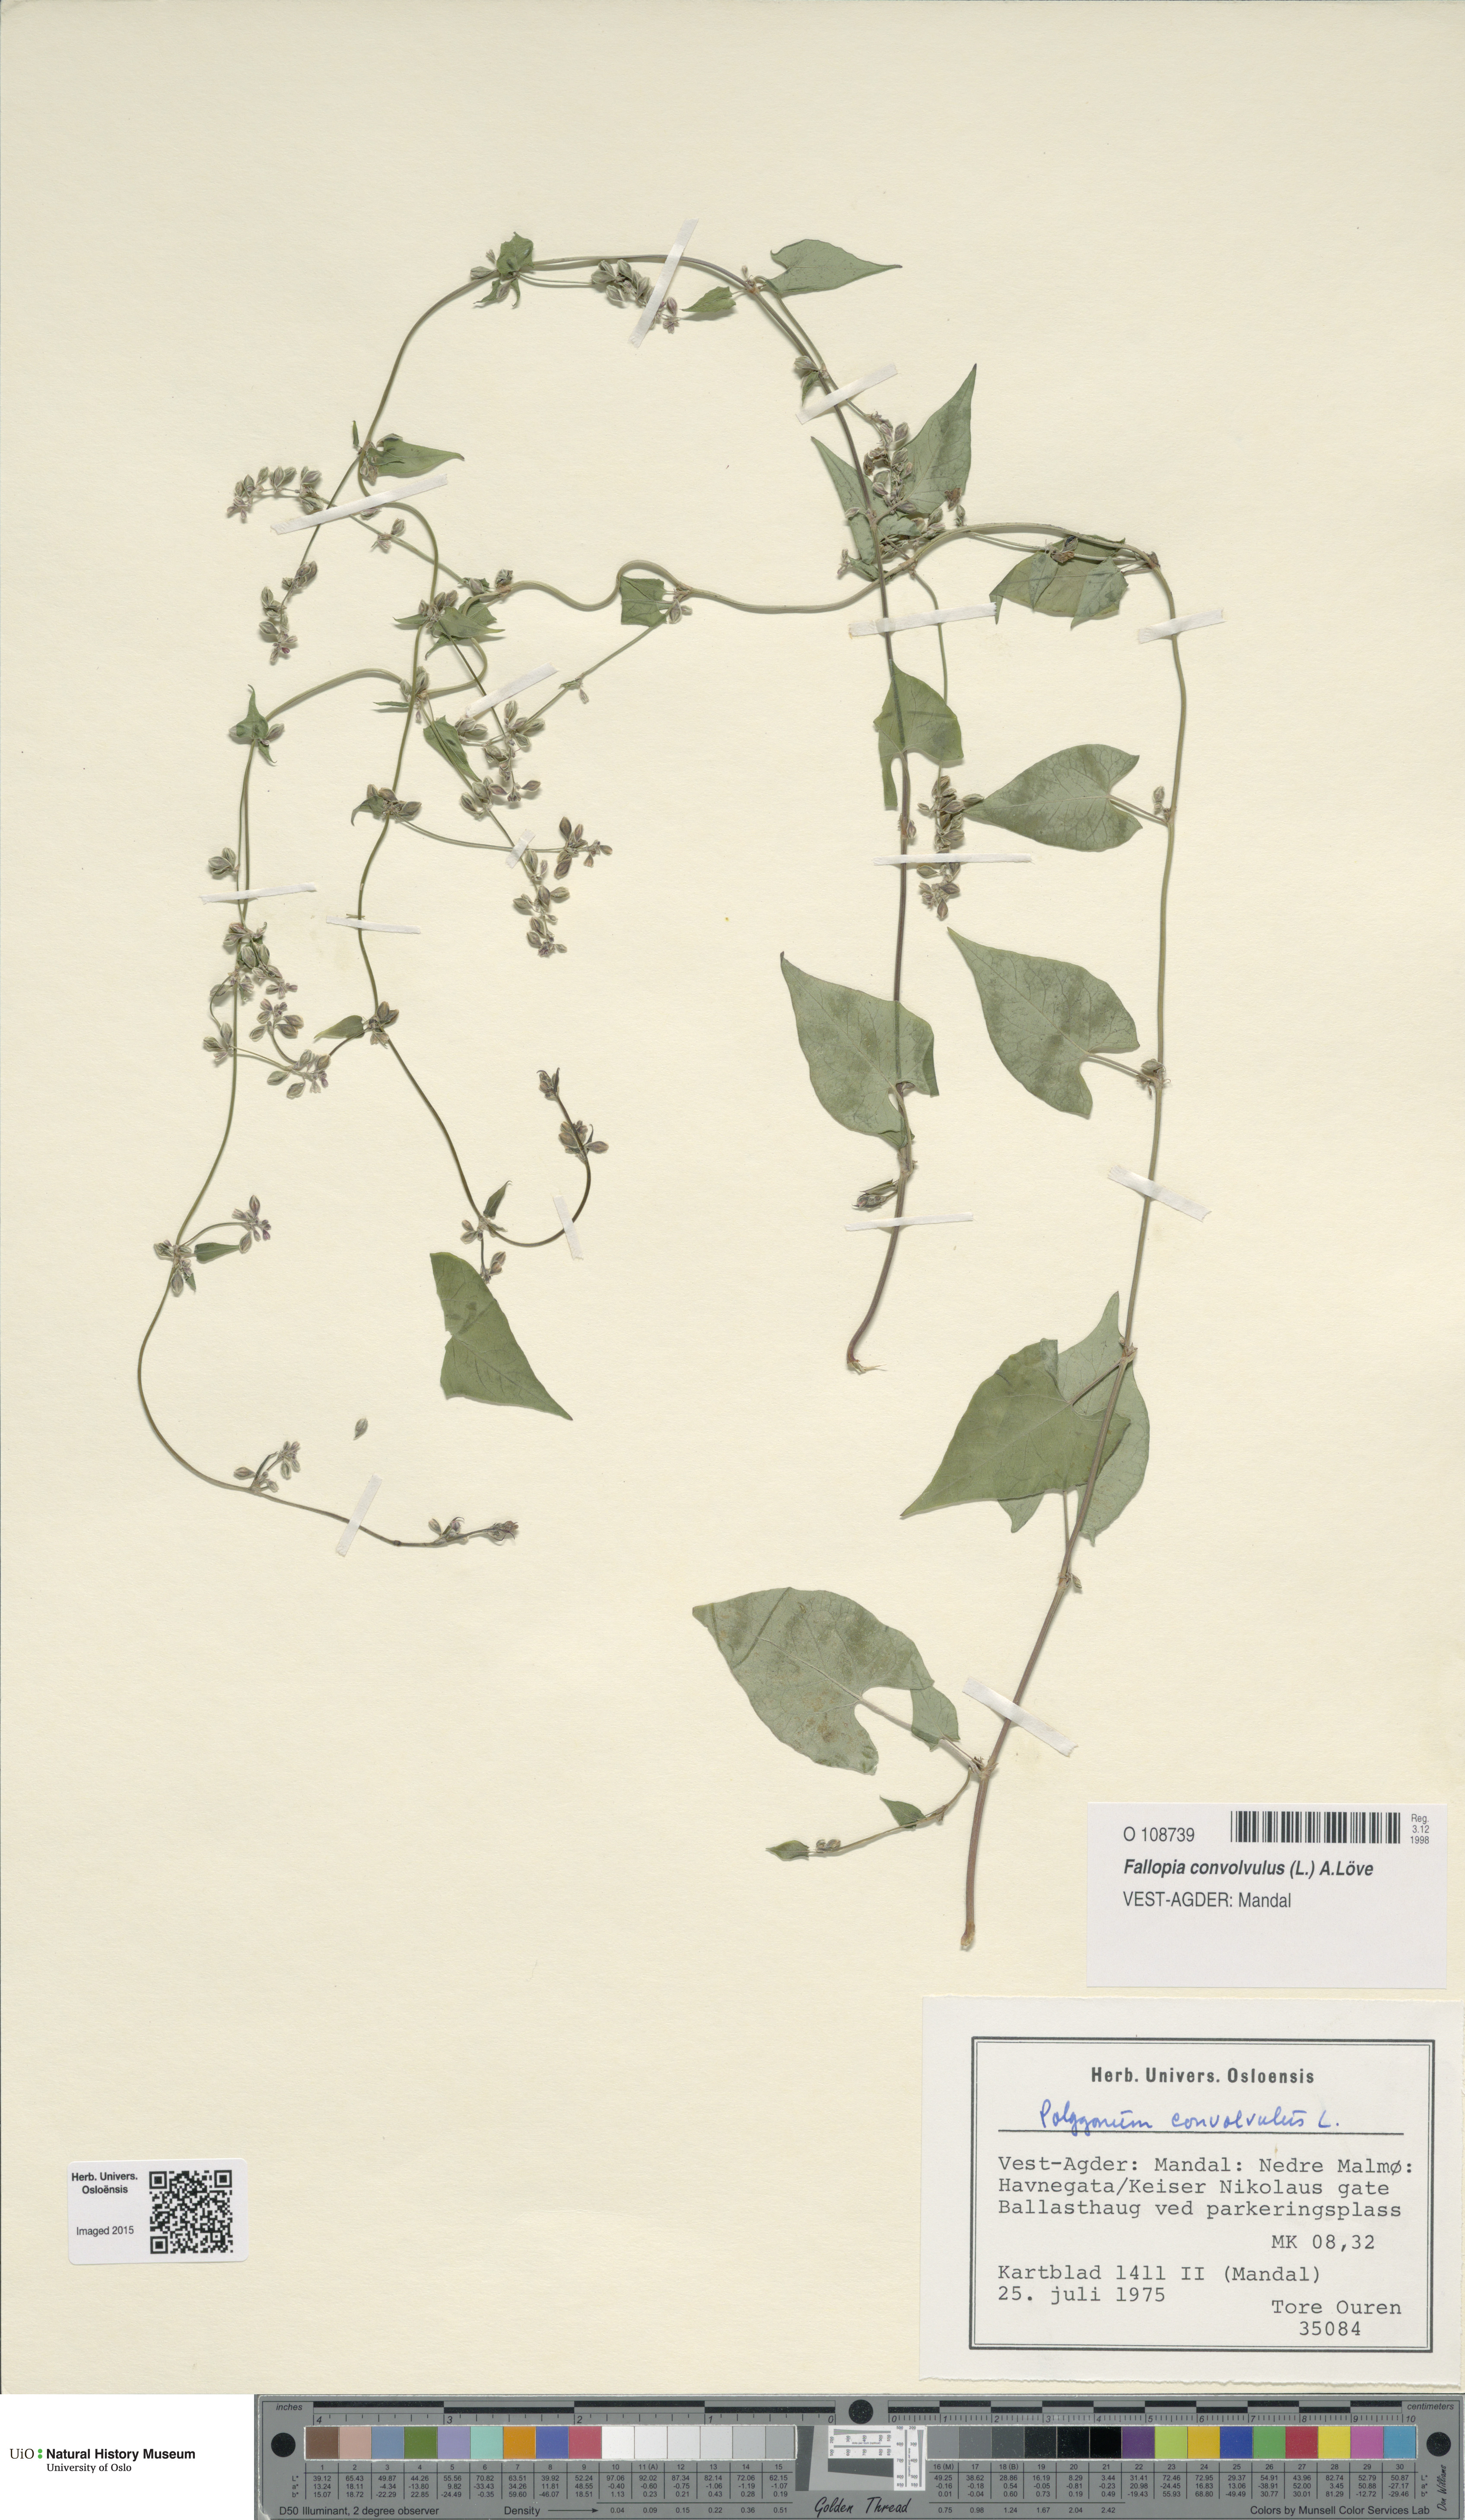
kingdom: Plantae
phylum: Tracheophyta
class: Magnoliopsida
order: Caryophyllales
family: Polygonaceae
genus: Fallopia
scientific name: Fallopia convolvulus
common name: Black bindweed
